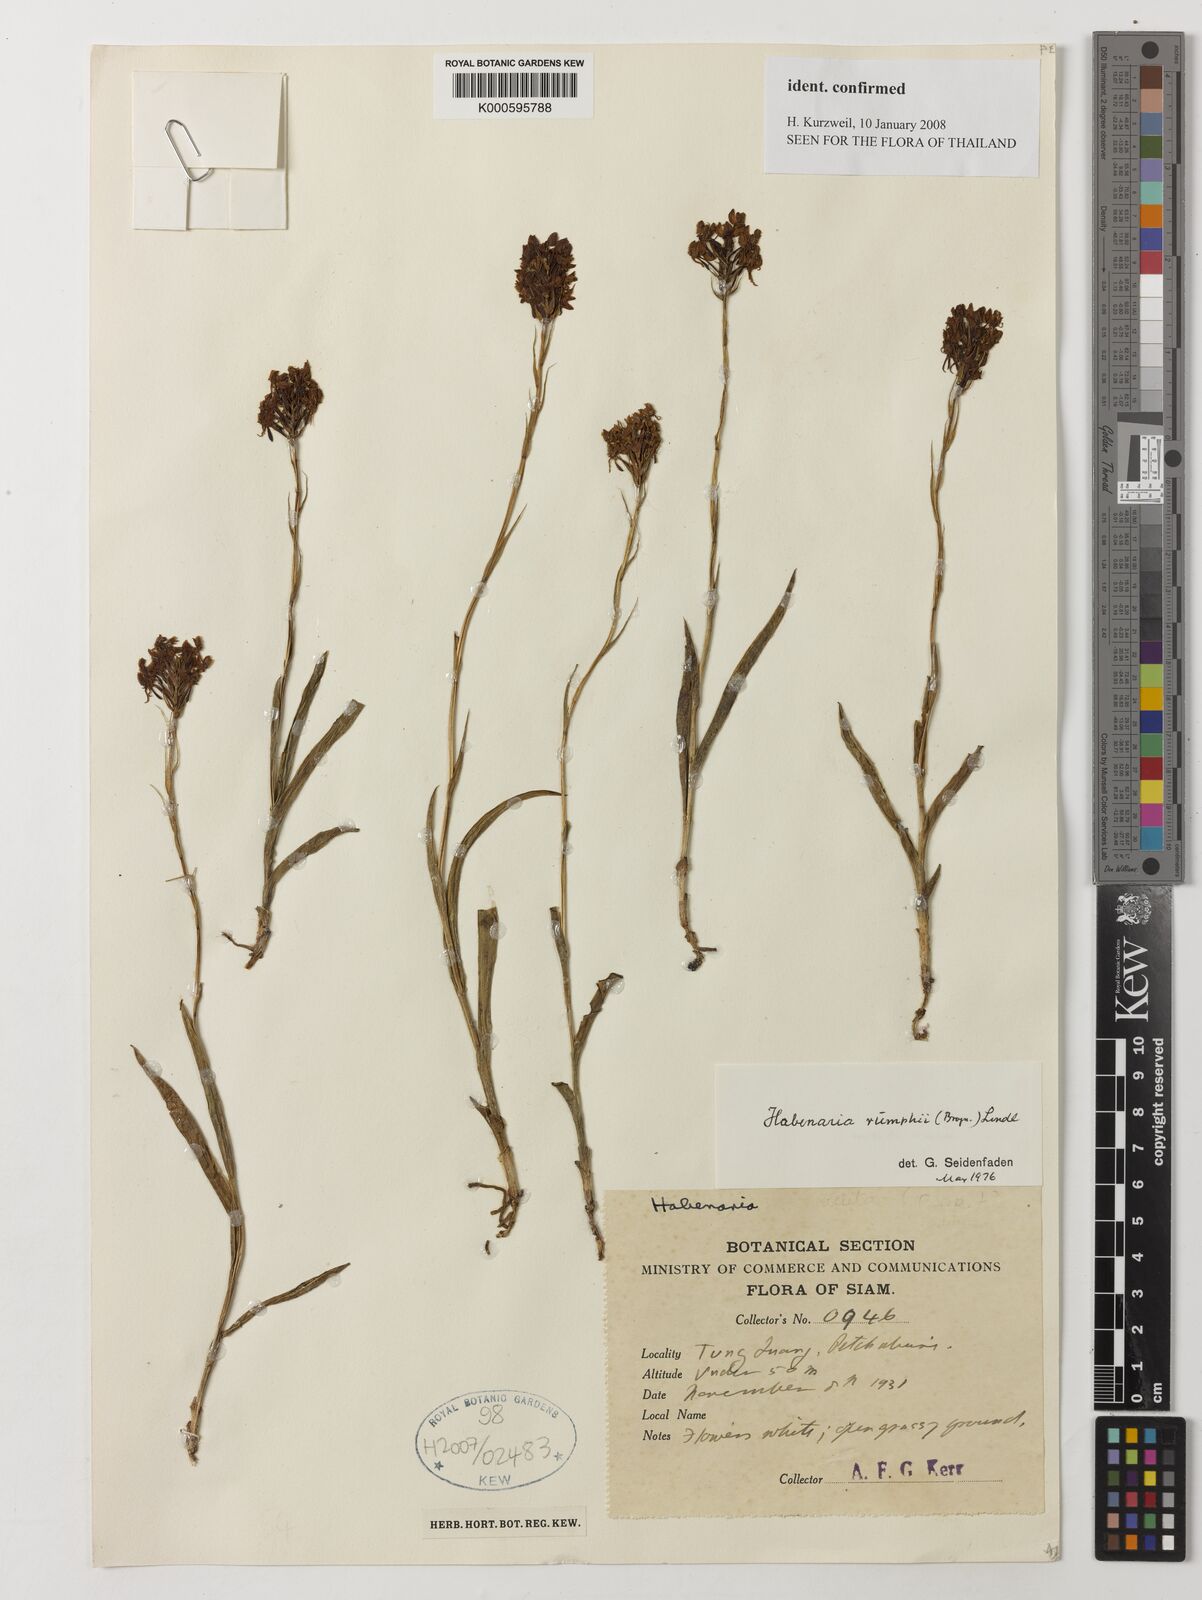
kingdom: Plantae
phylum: Tracheophyta
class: Liliopsida
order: Asparagales
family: Orchidaceae
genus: Habenaria
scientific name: Habenaria rumphii
